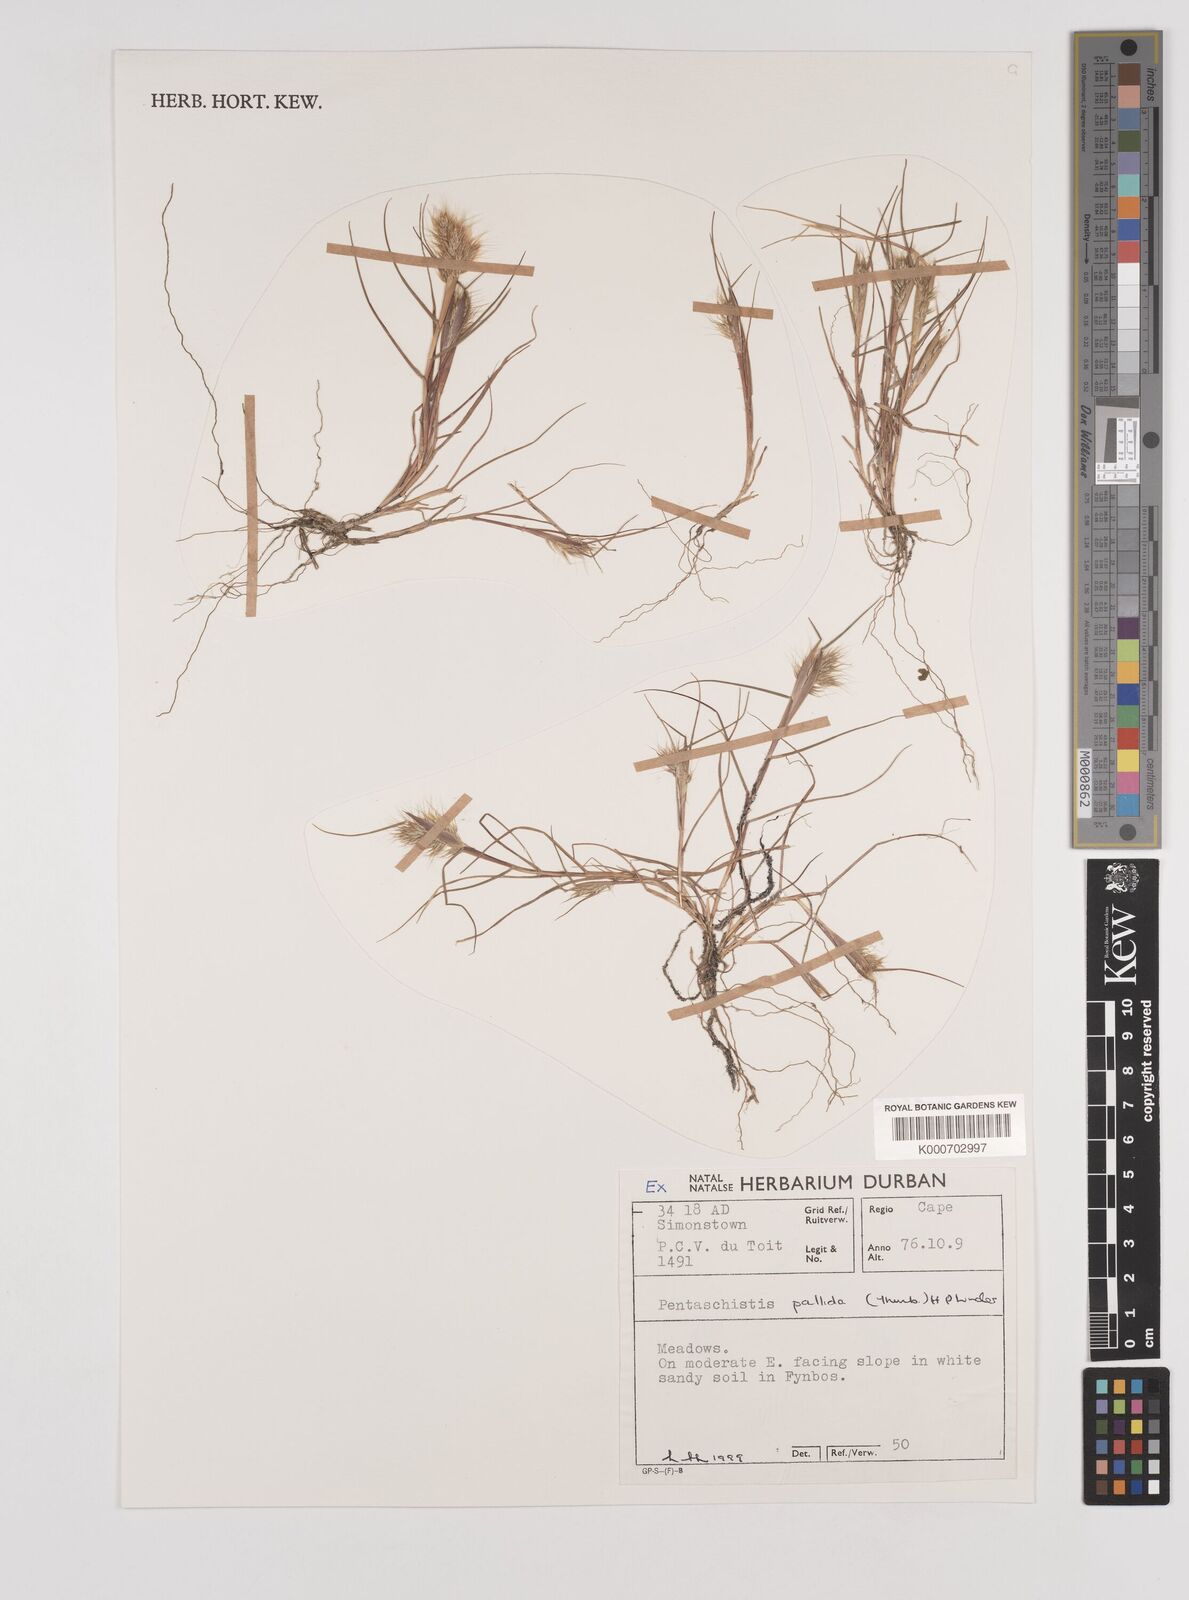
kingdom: Plantae
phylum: Tracheophyta
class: Liliopsida
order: Poales
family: Poaceae
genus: Pentameris
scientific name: Pentameris pallida
